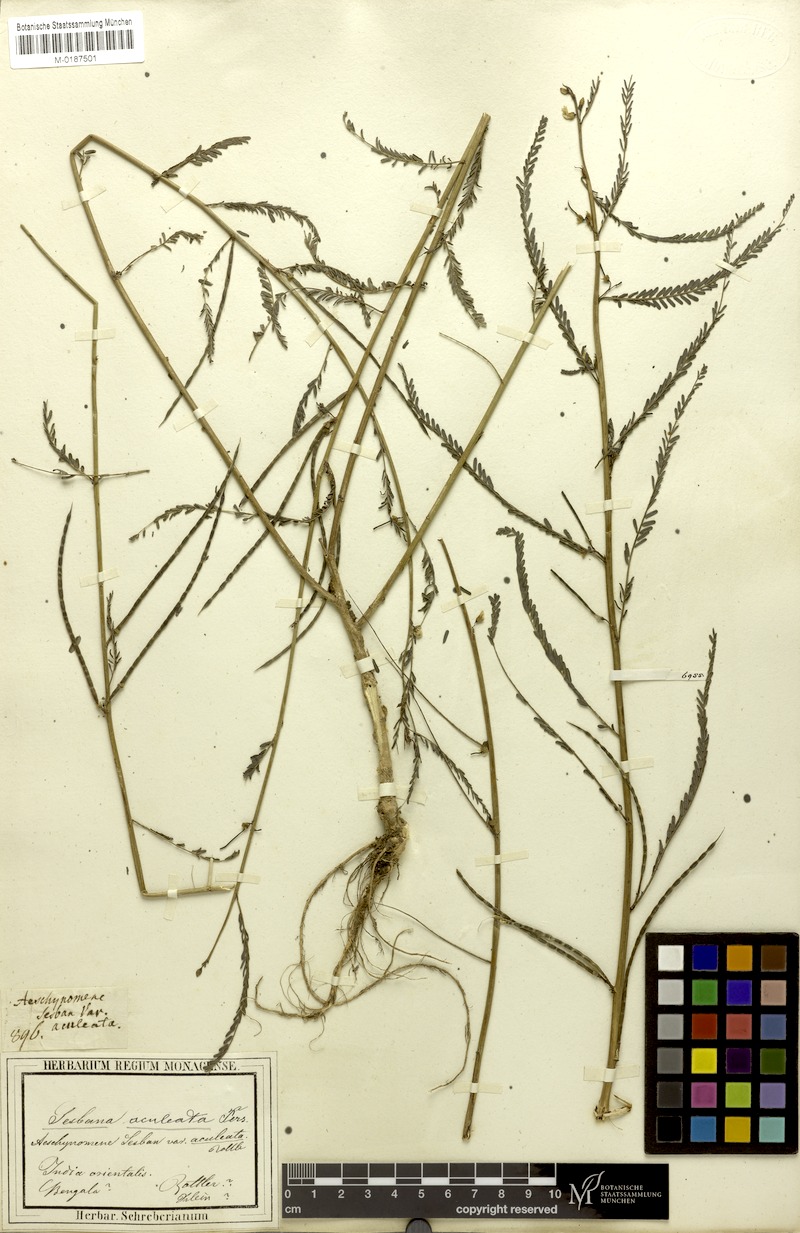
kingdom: Plantae
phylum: Tracheophyta
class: Magnoliopsida
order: Fabales
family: Fabaceae
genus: Sesbania
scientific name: Sesbania bispinosa
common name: Sesbania pea
